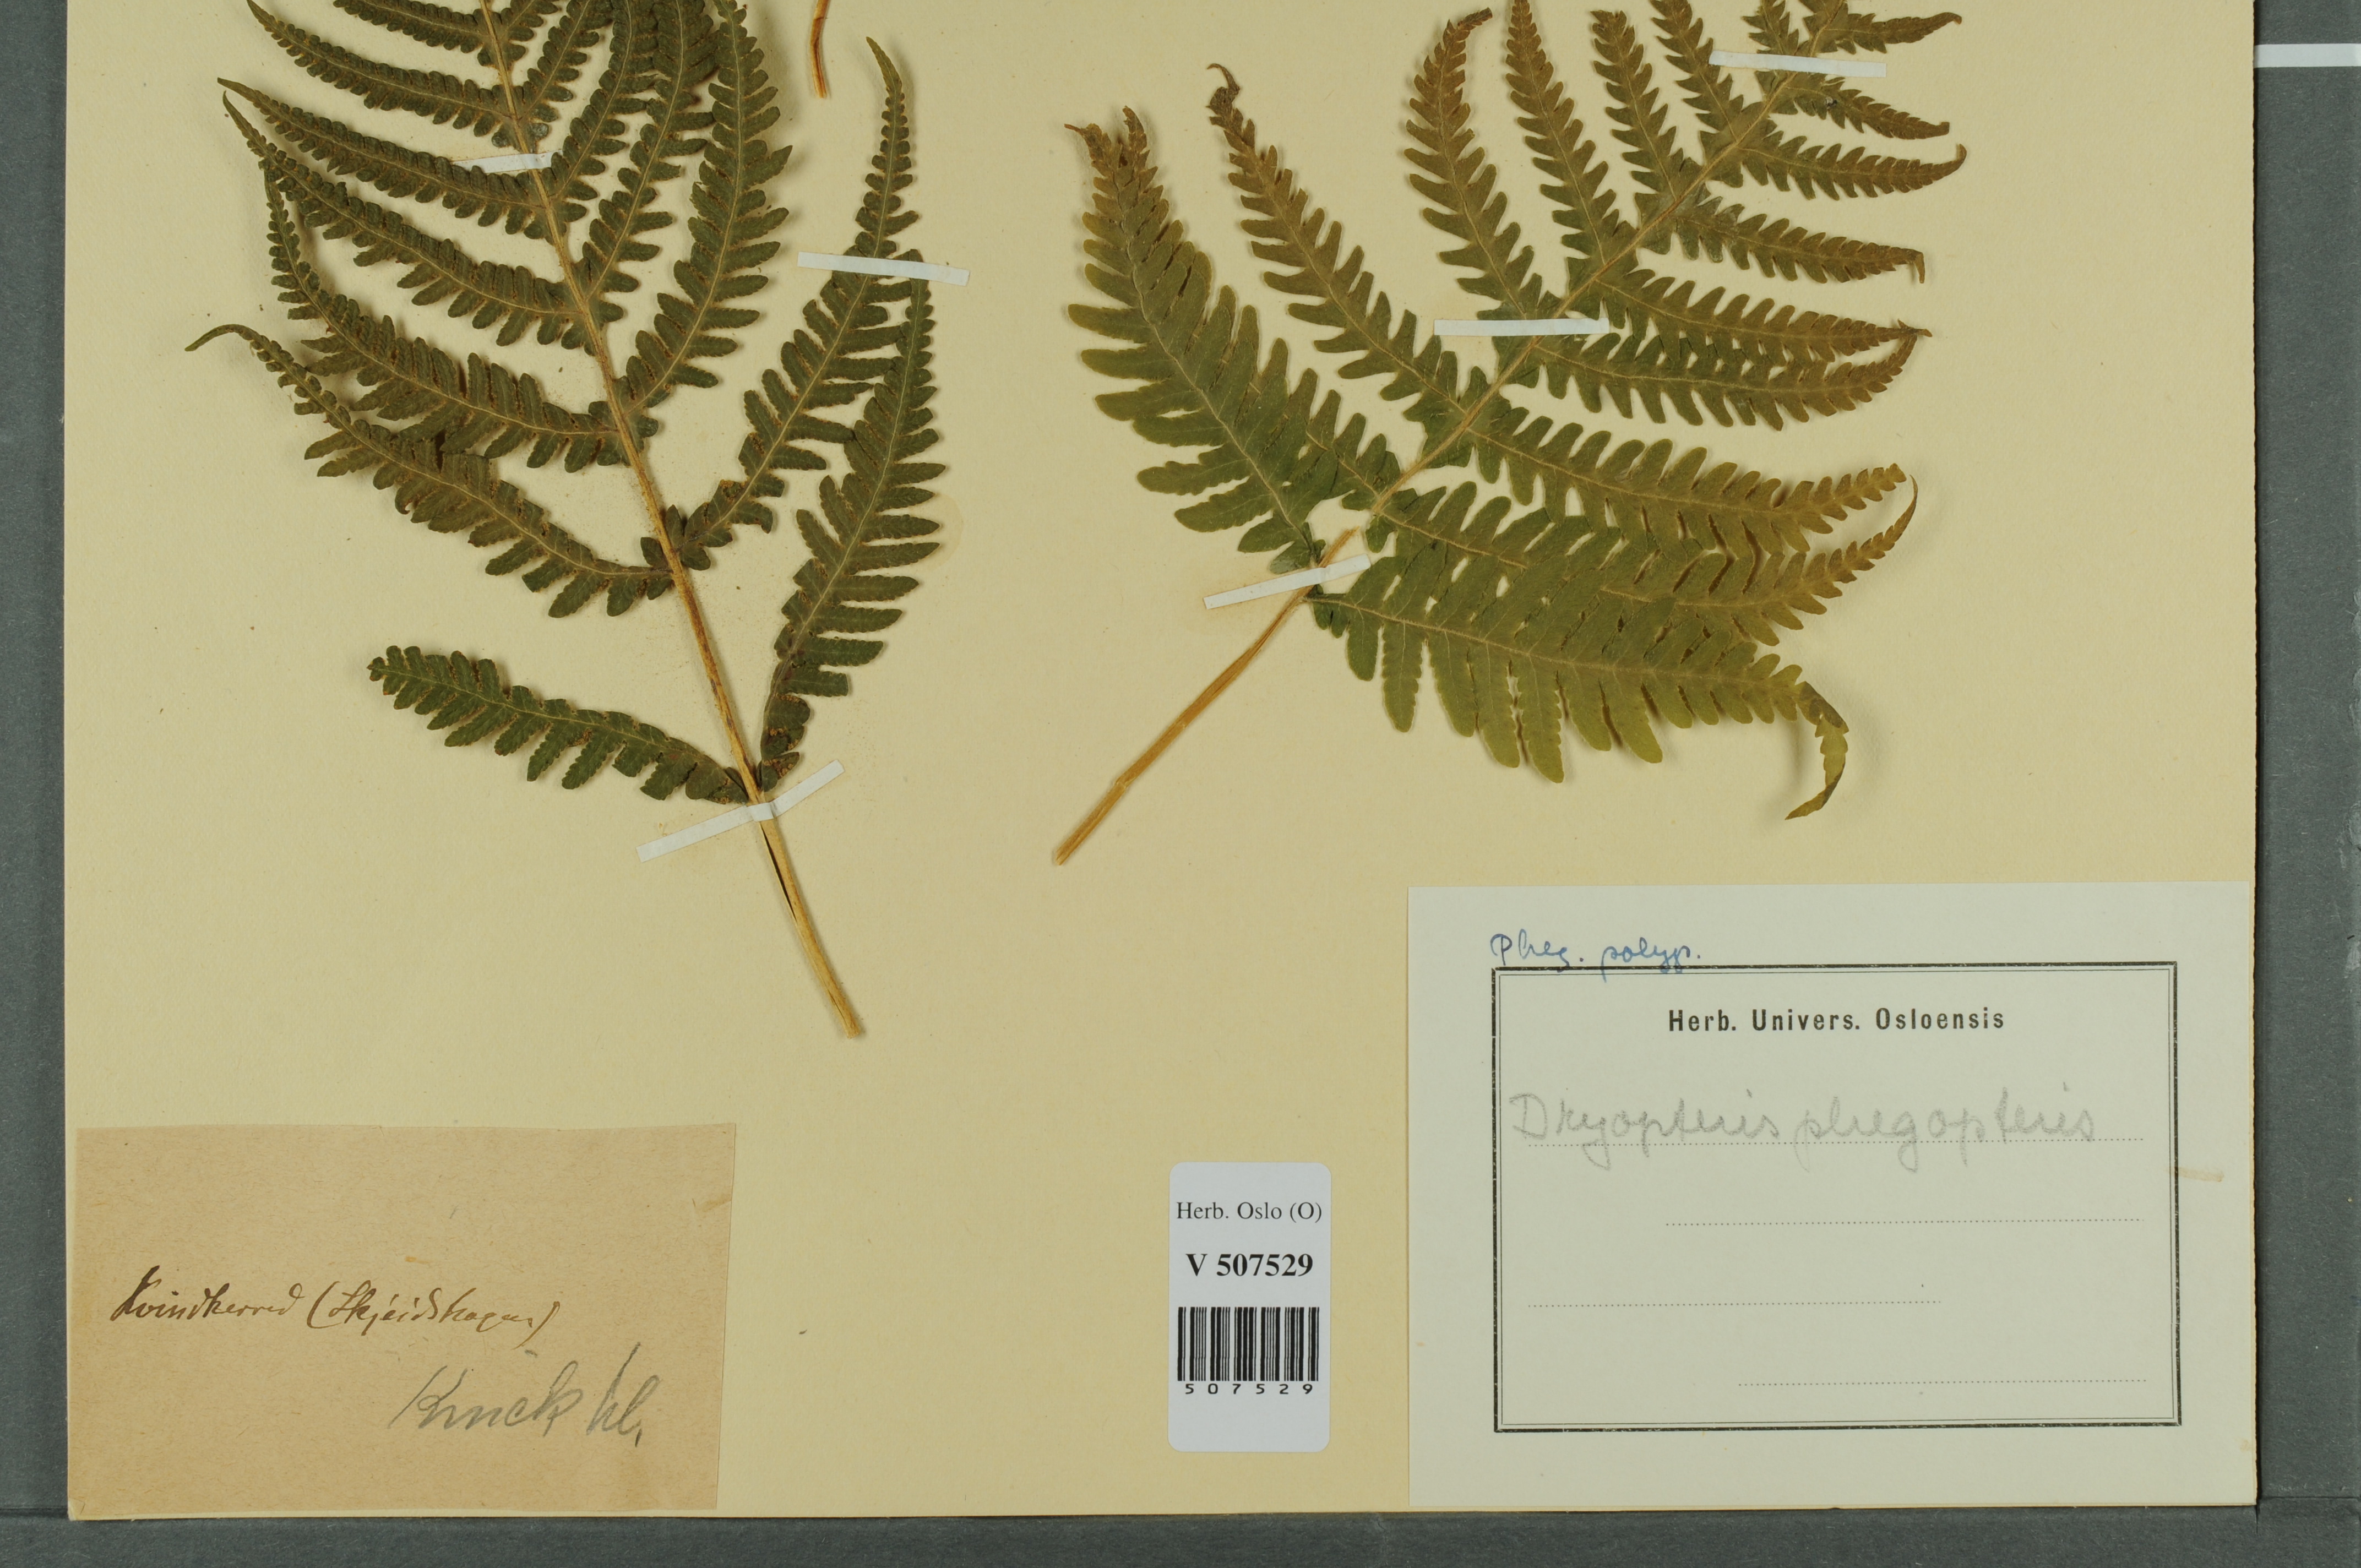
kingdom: Plantae
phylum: Tracheophyta
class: Polypodiopsida
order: Polypodiales
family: Thelypteridaceae
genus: Phegopteris
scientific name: Phegopteris connectilis
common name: Beech fern
